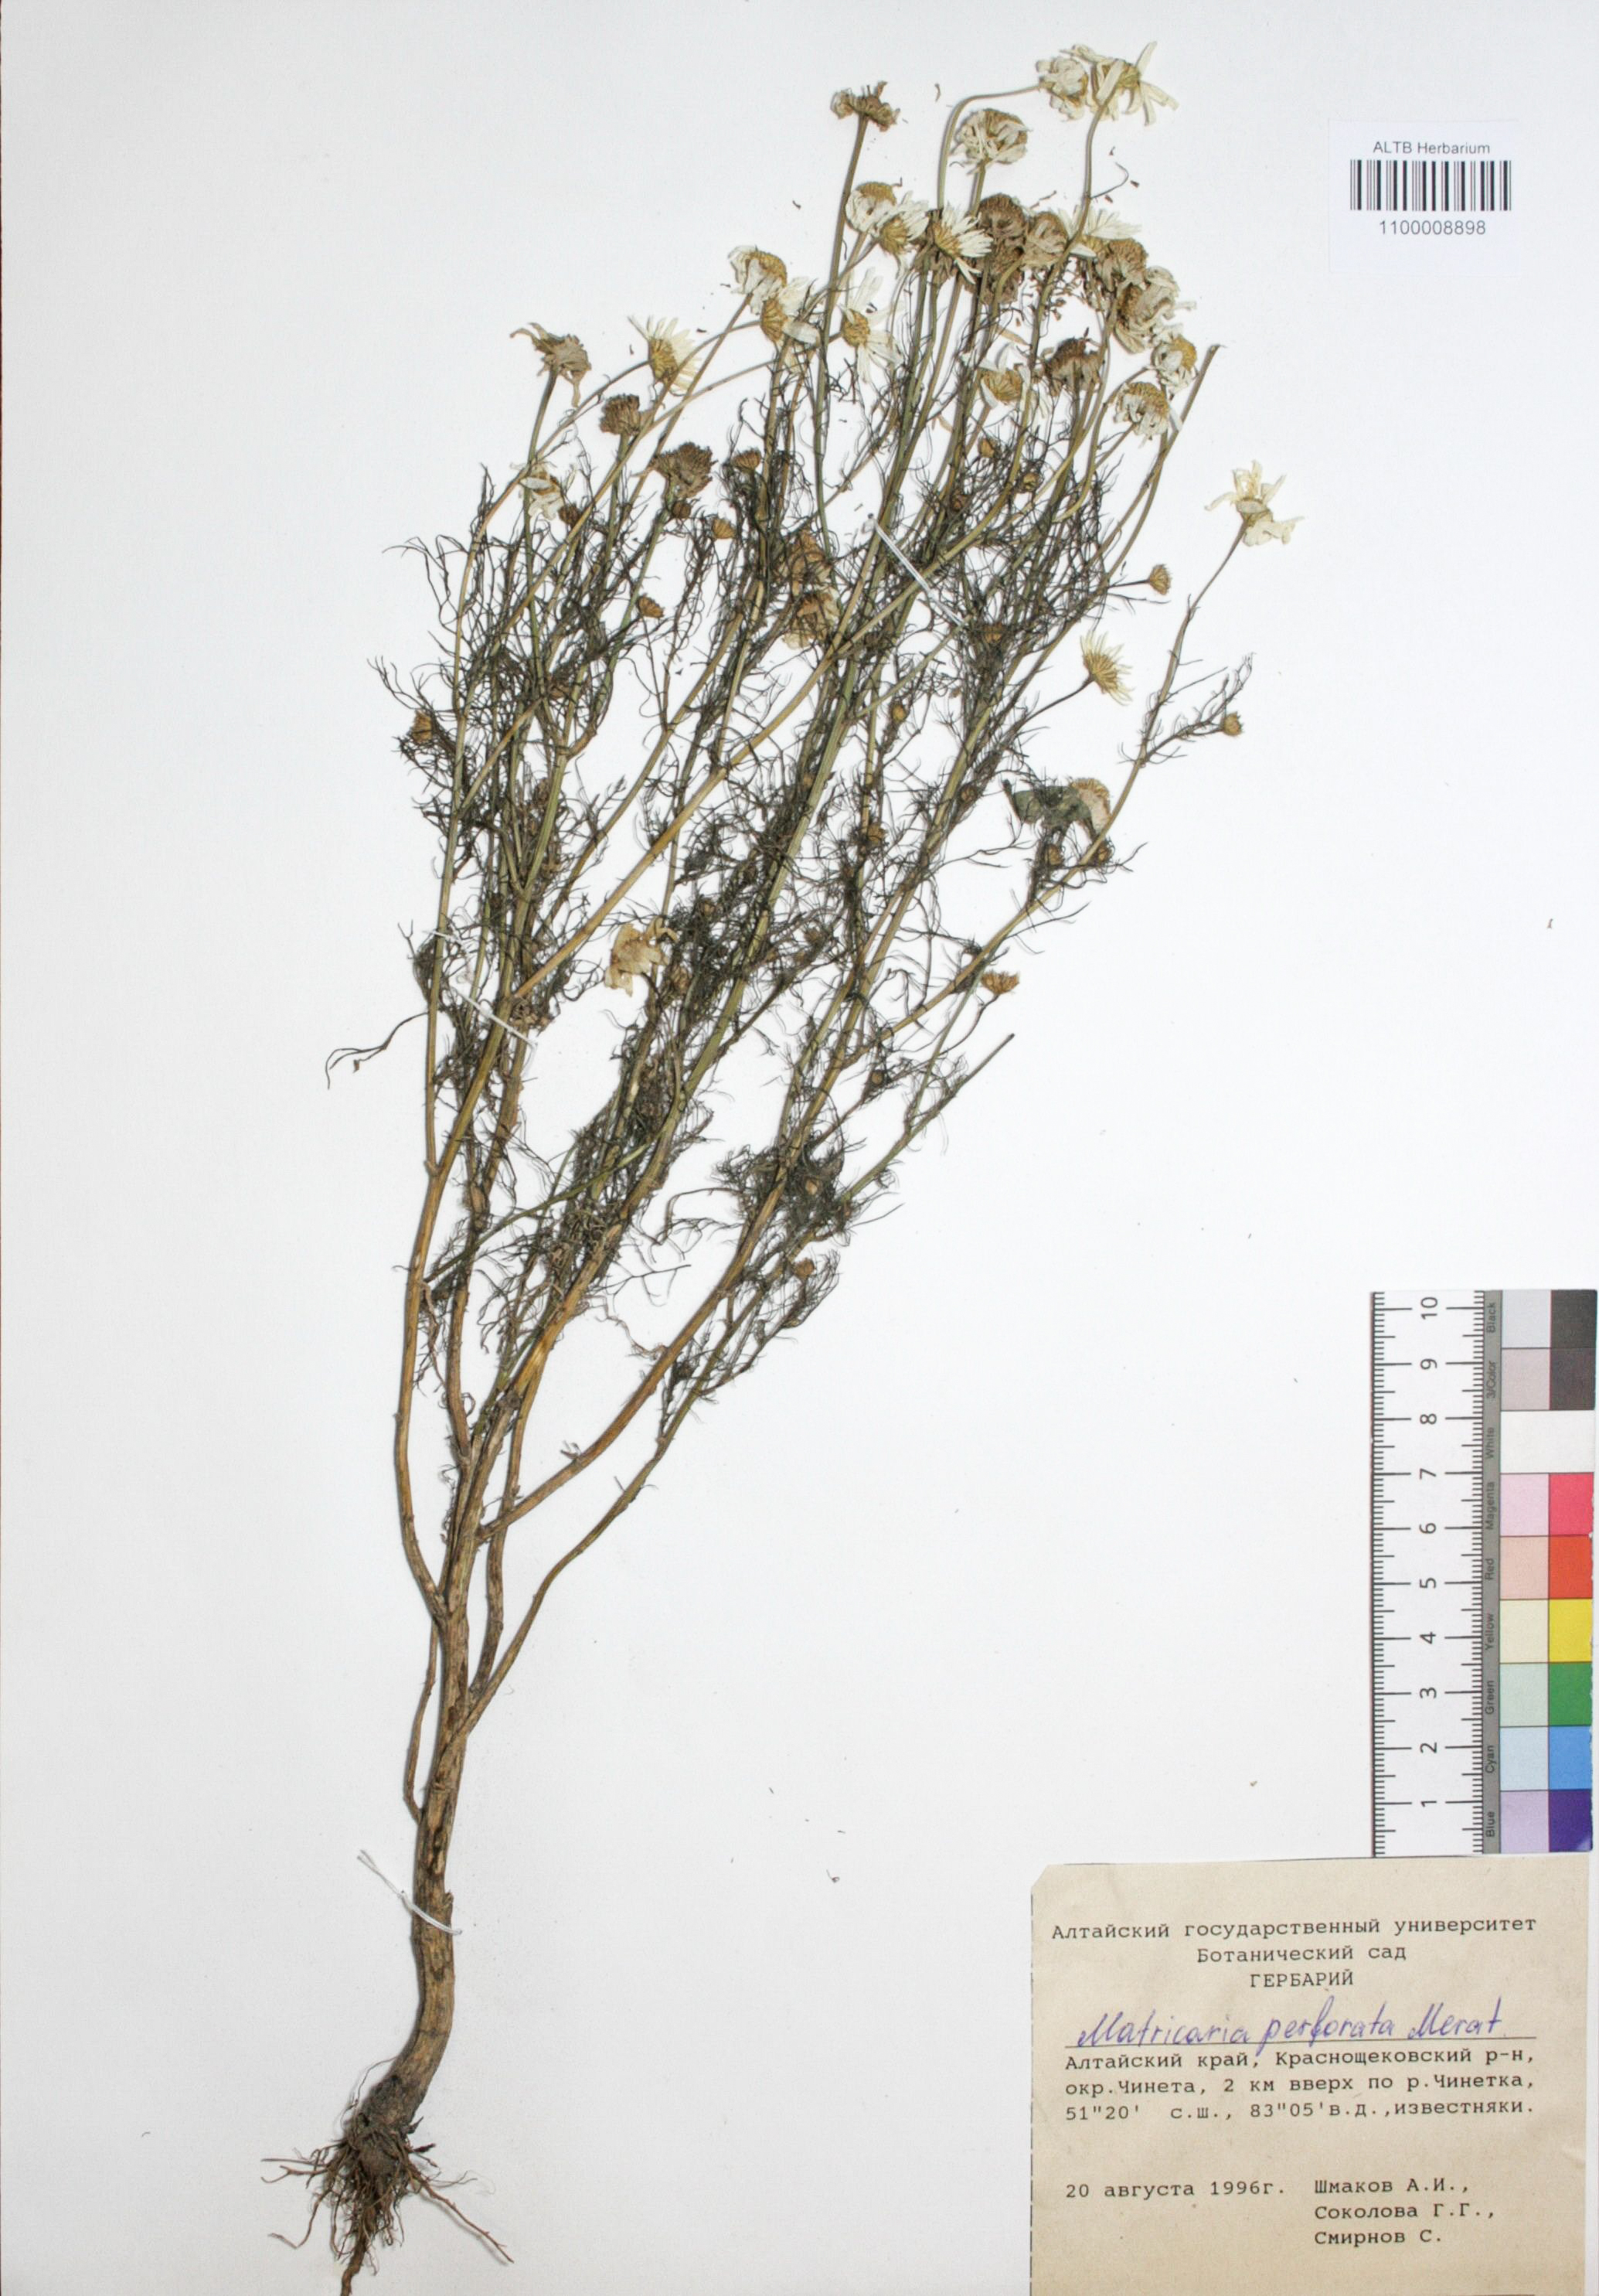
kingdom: Plantae
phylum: Tracheophyta
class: Magnoliopsida
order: Asterales
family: Asteraceae
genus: Tripleurospermum
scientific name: Tripleurospermum inodorum
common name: Scentless mayweed
